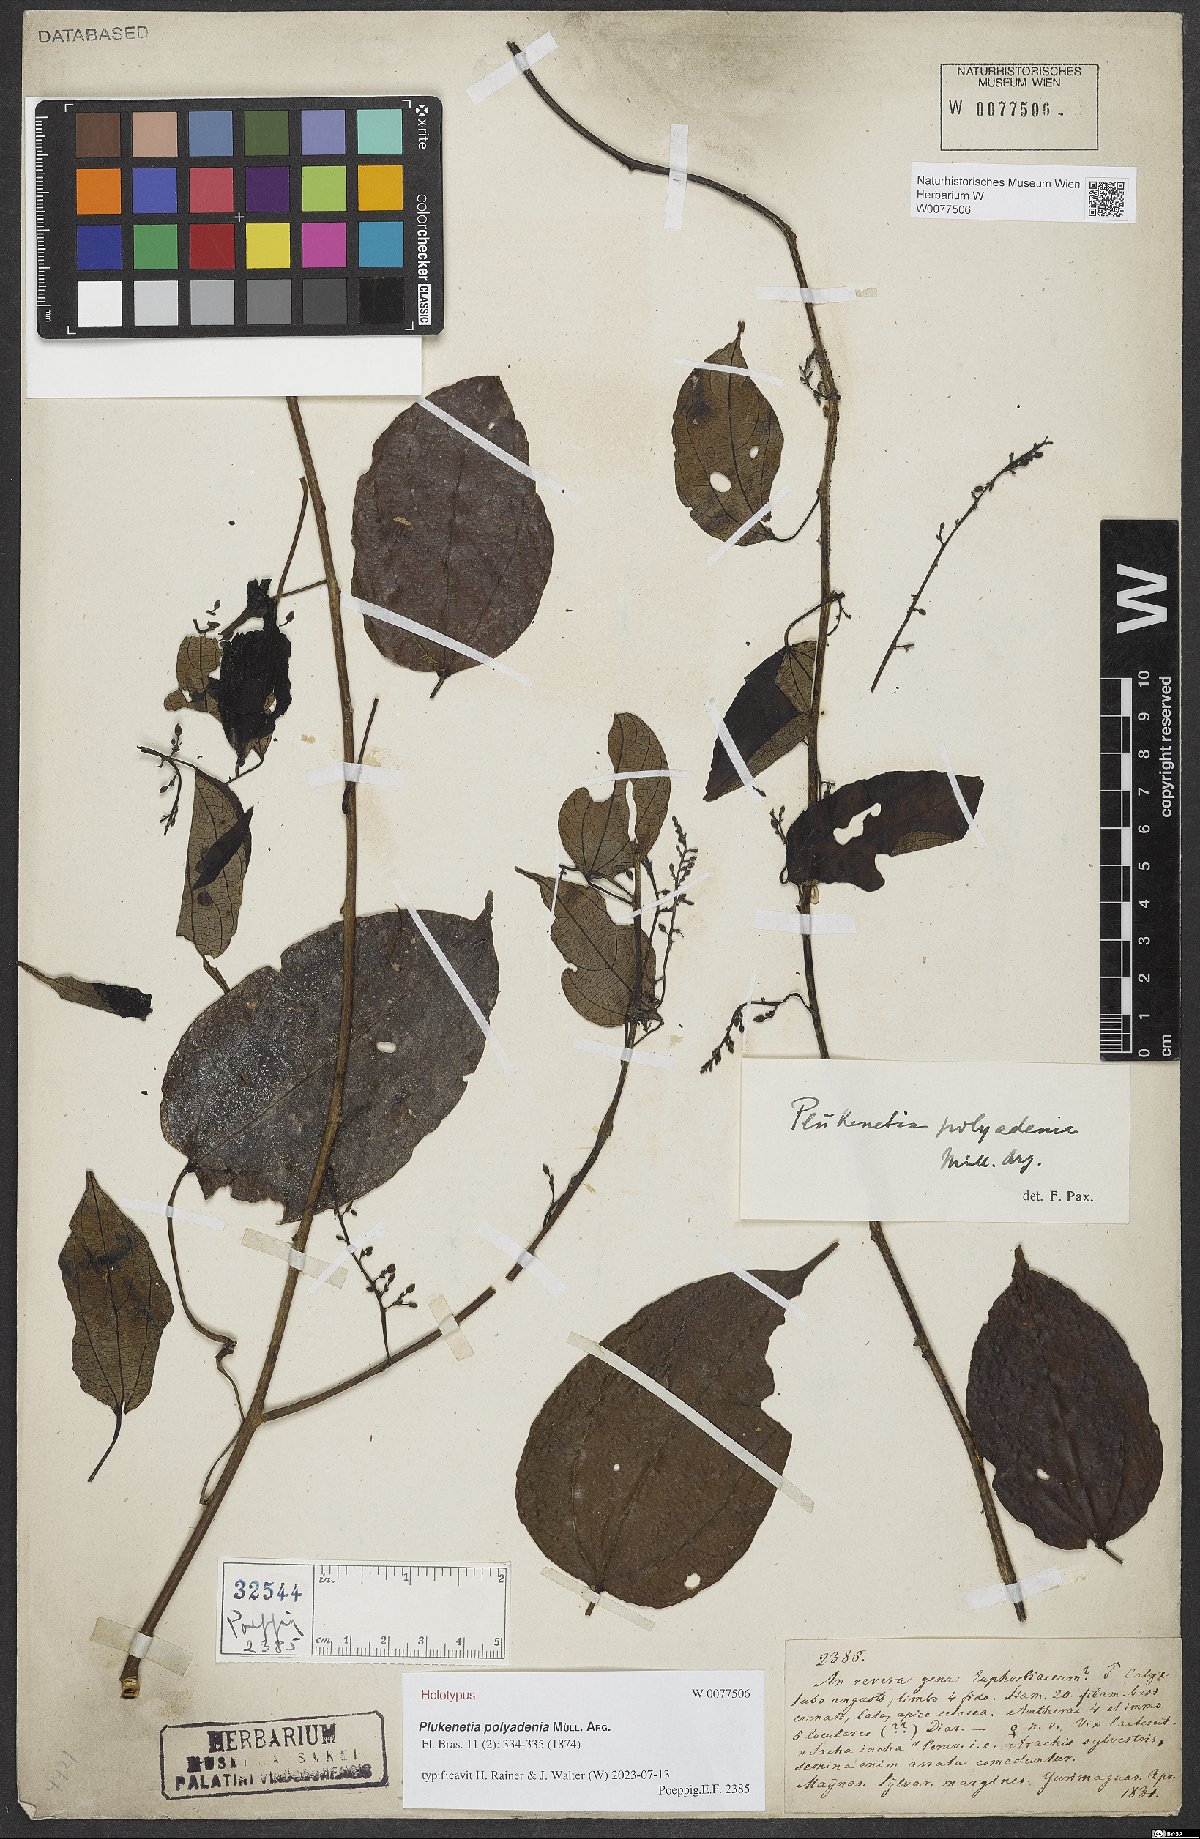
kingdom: Plantae
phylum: Tracheophyta
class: Magnoliopsida
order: Malpighiales
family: Euphorbiaceae
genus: Plukenetia
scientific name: Plukenetia polyadenia
